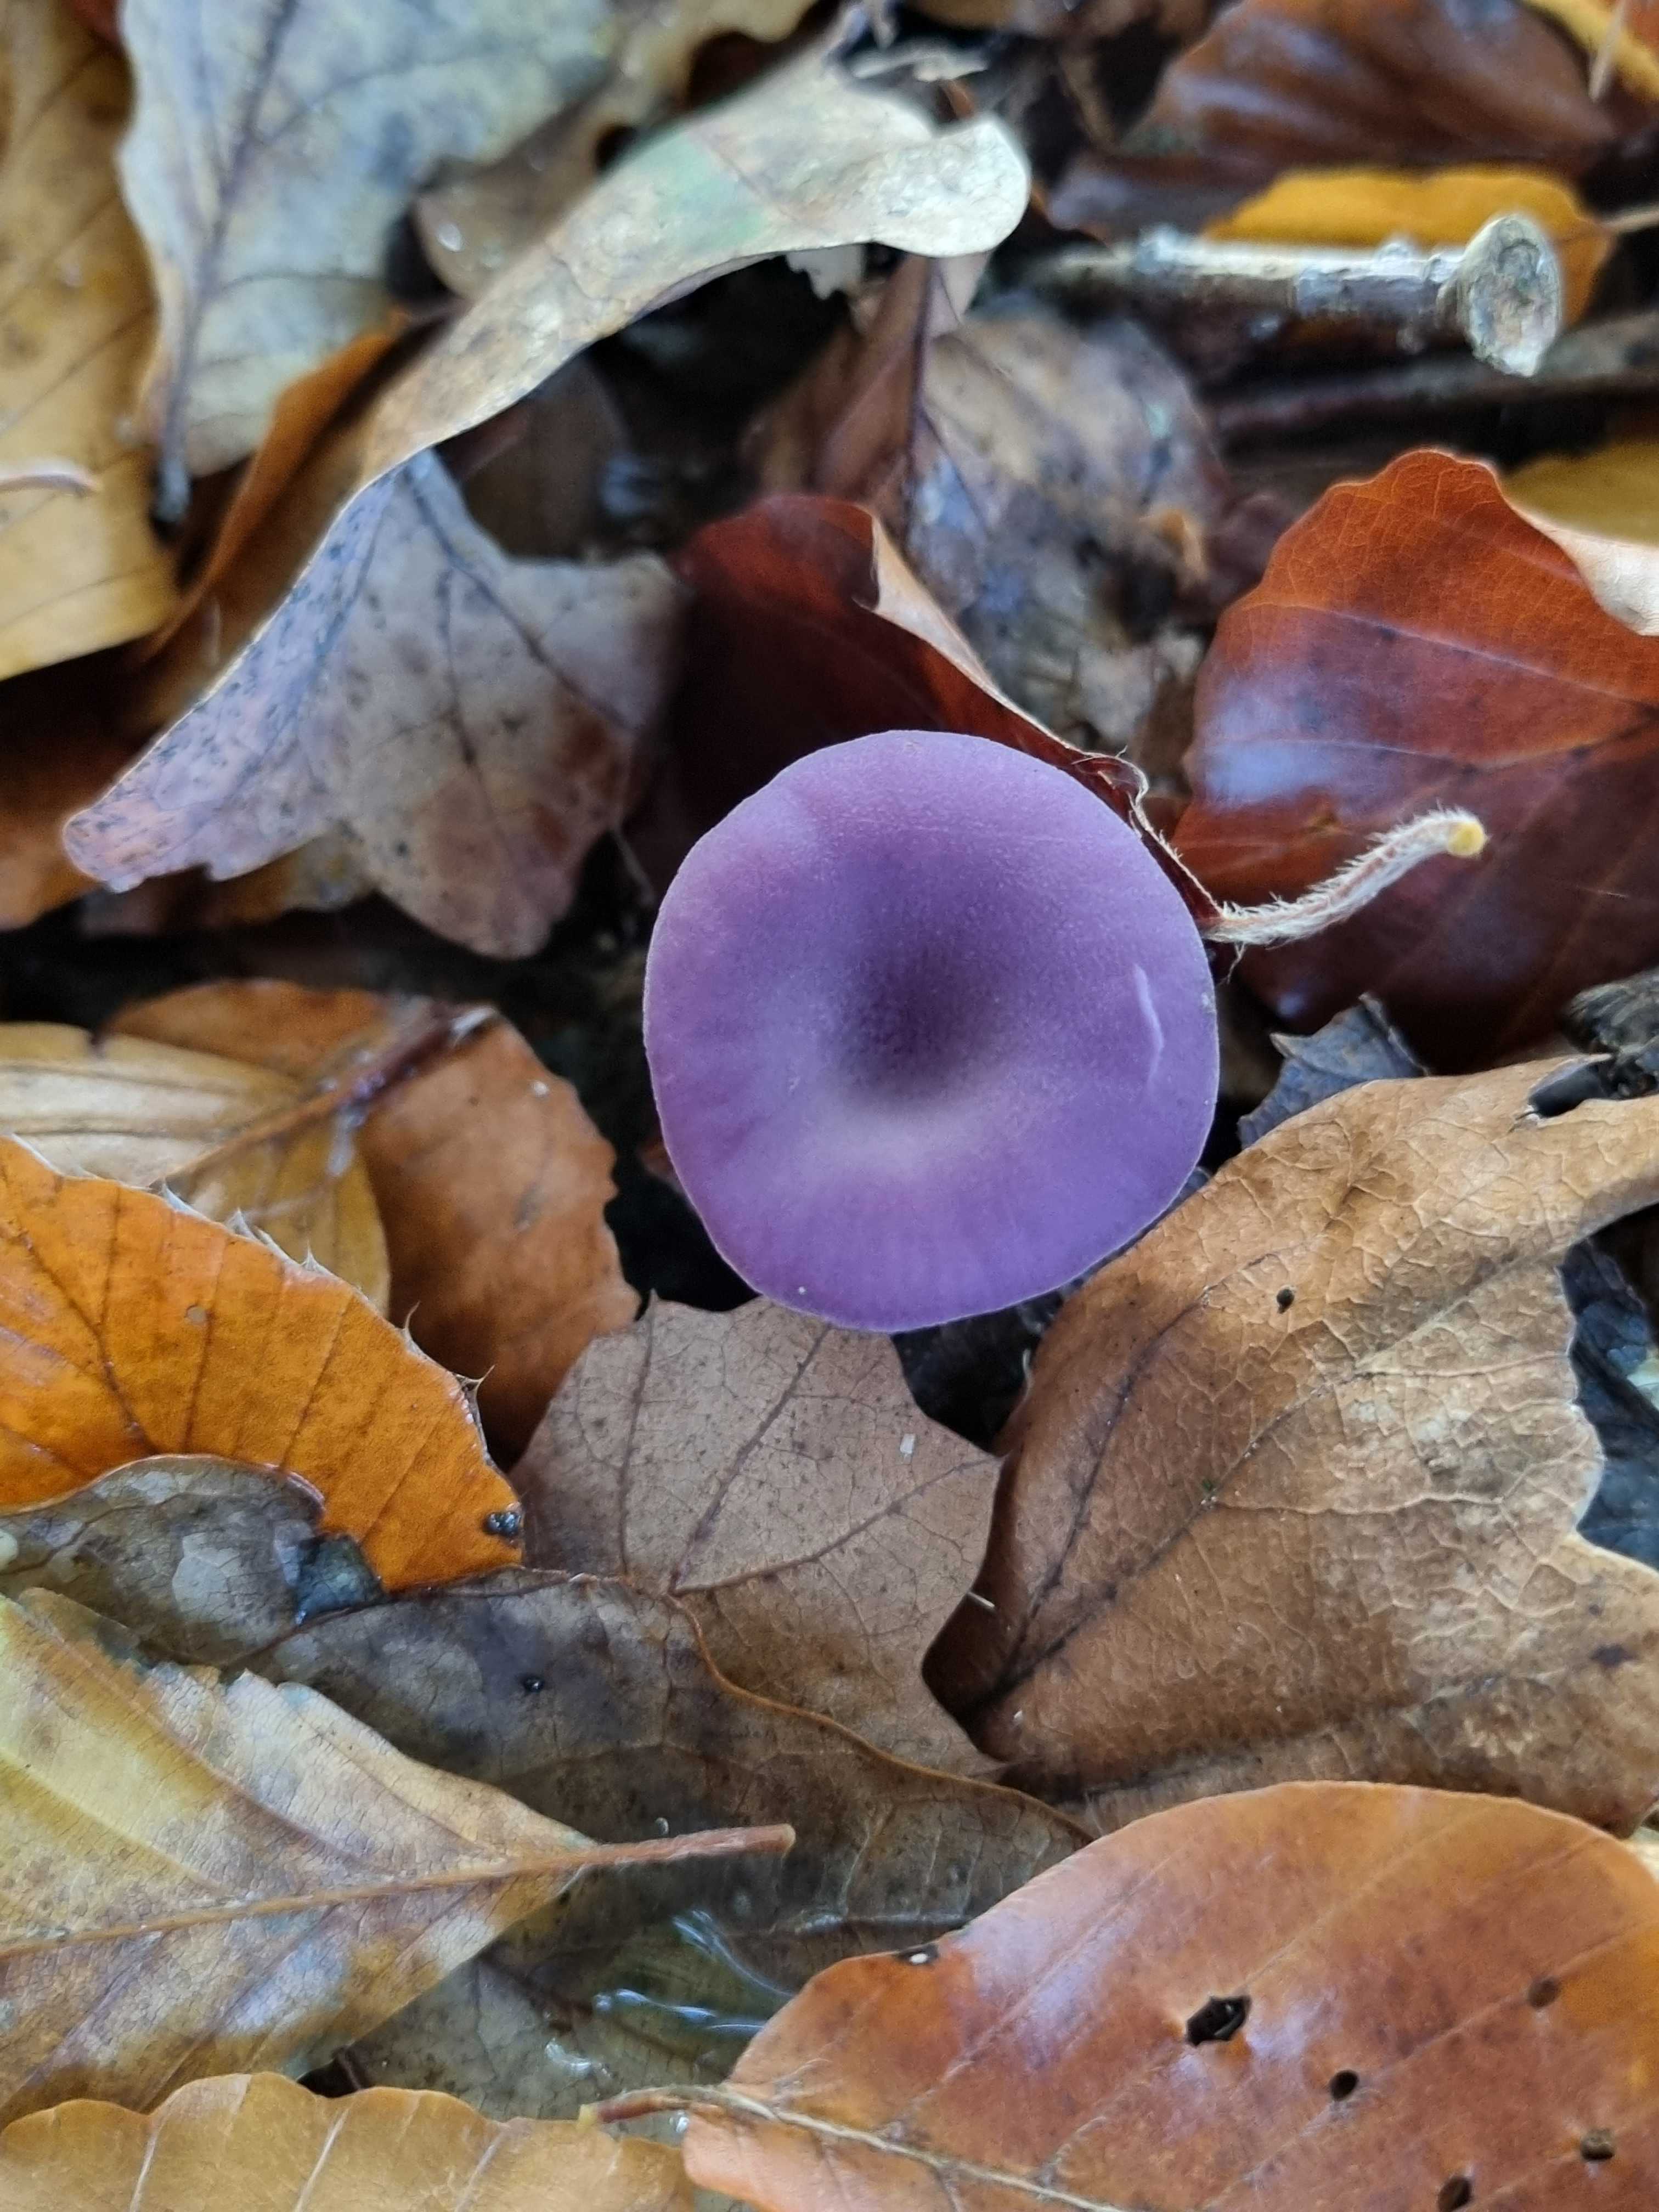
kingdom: Fungi
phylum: Basidiomycota
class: Agaricomycetes
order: Agaricales
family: Hydnangiaceae
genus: Laccaria
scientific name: Laccaria amethystina
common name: violet ametysthat
